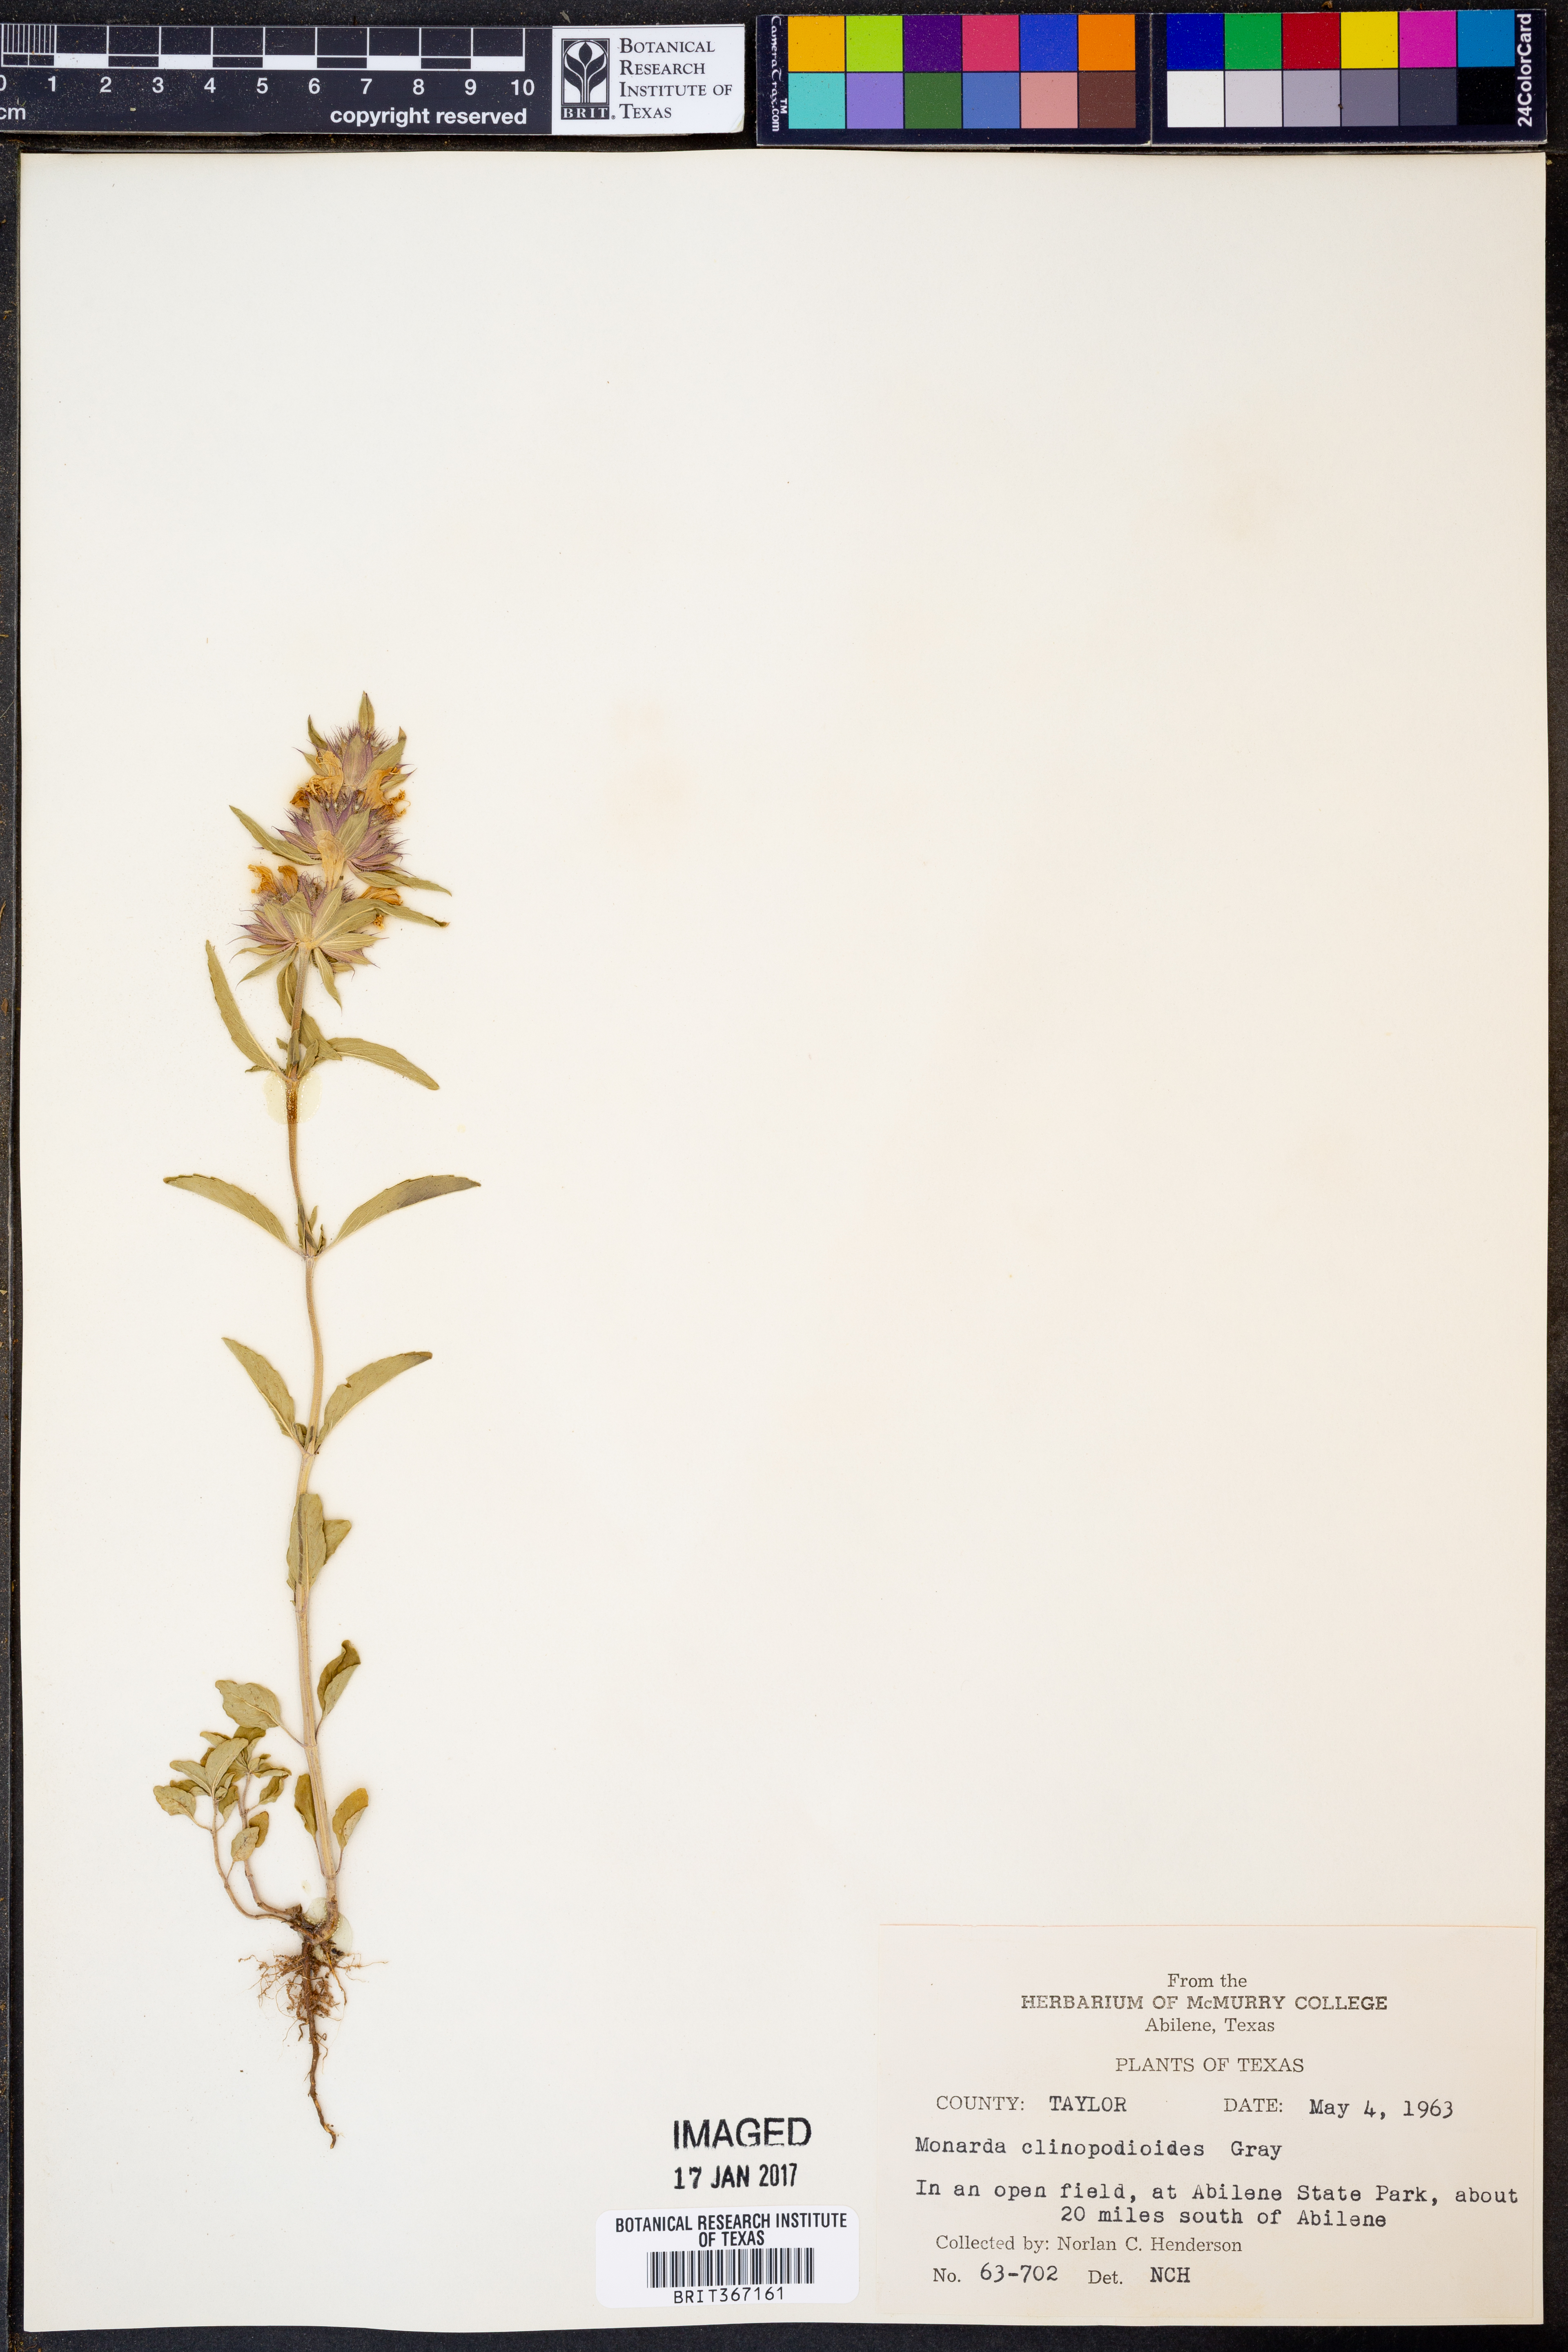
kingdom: Plantae
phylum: Tracheophyta
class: Magnoliopsida
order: Lamiales
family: Lamiaceae
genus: Monarda
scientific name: Monarda clinopodioides
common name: Basil beebalm
